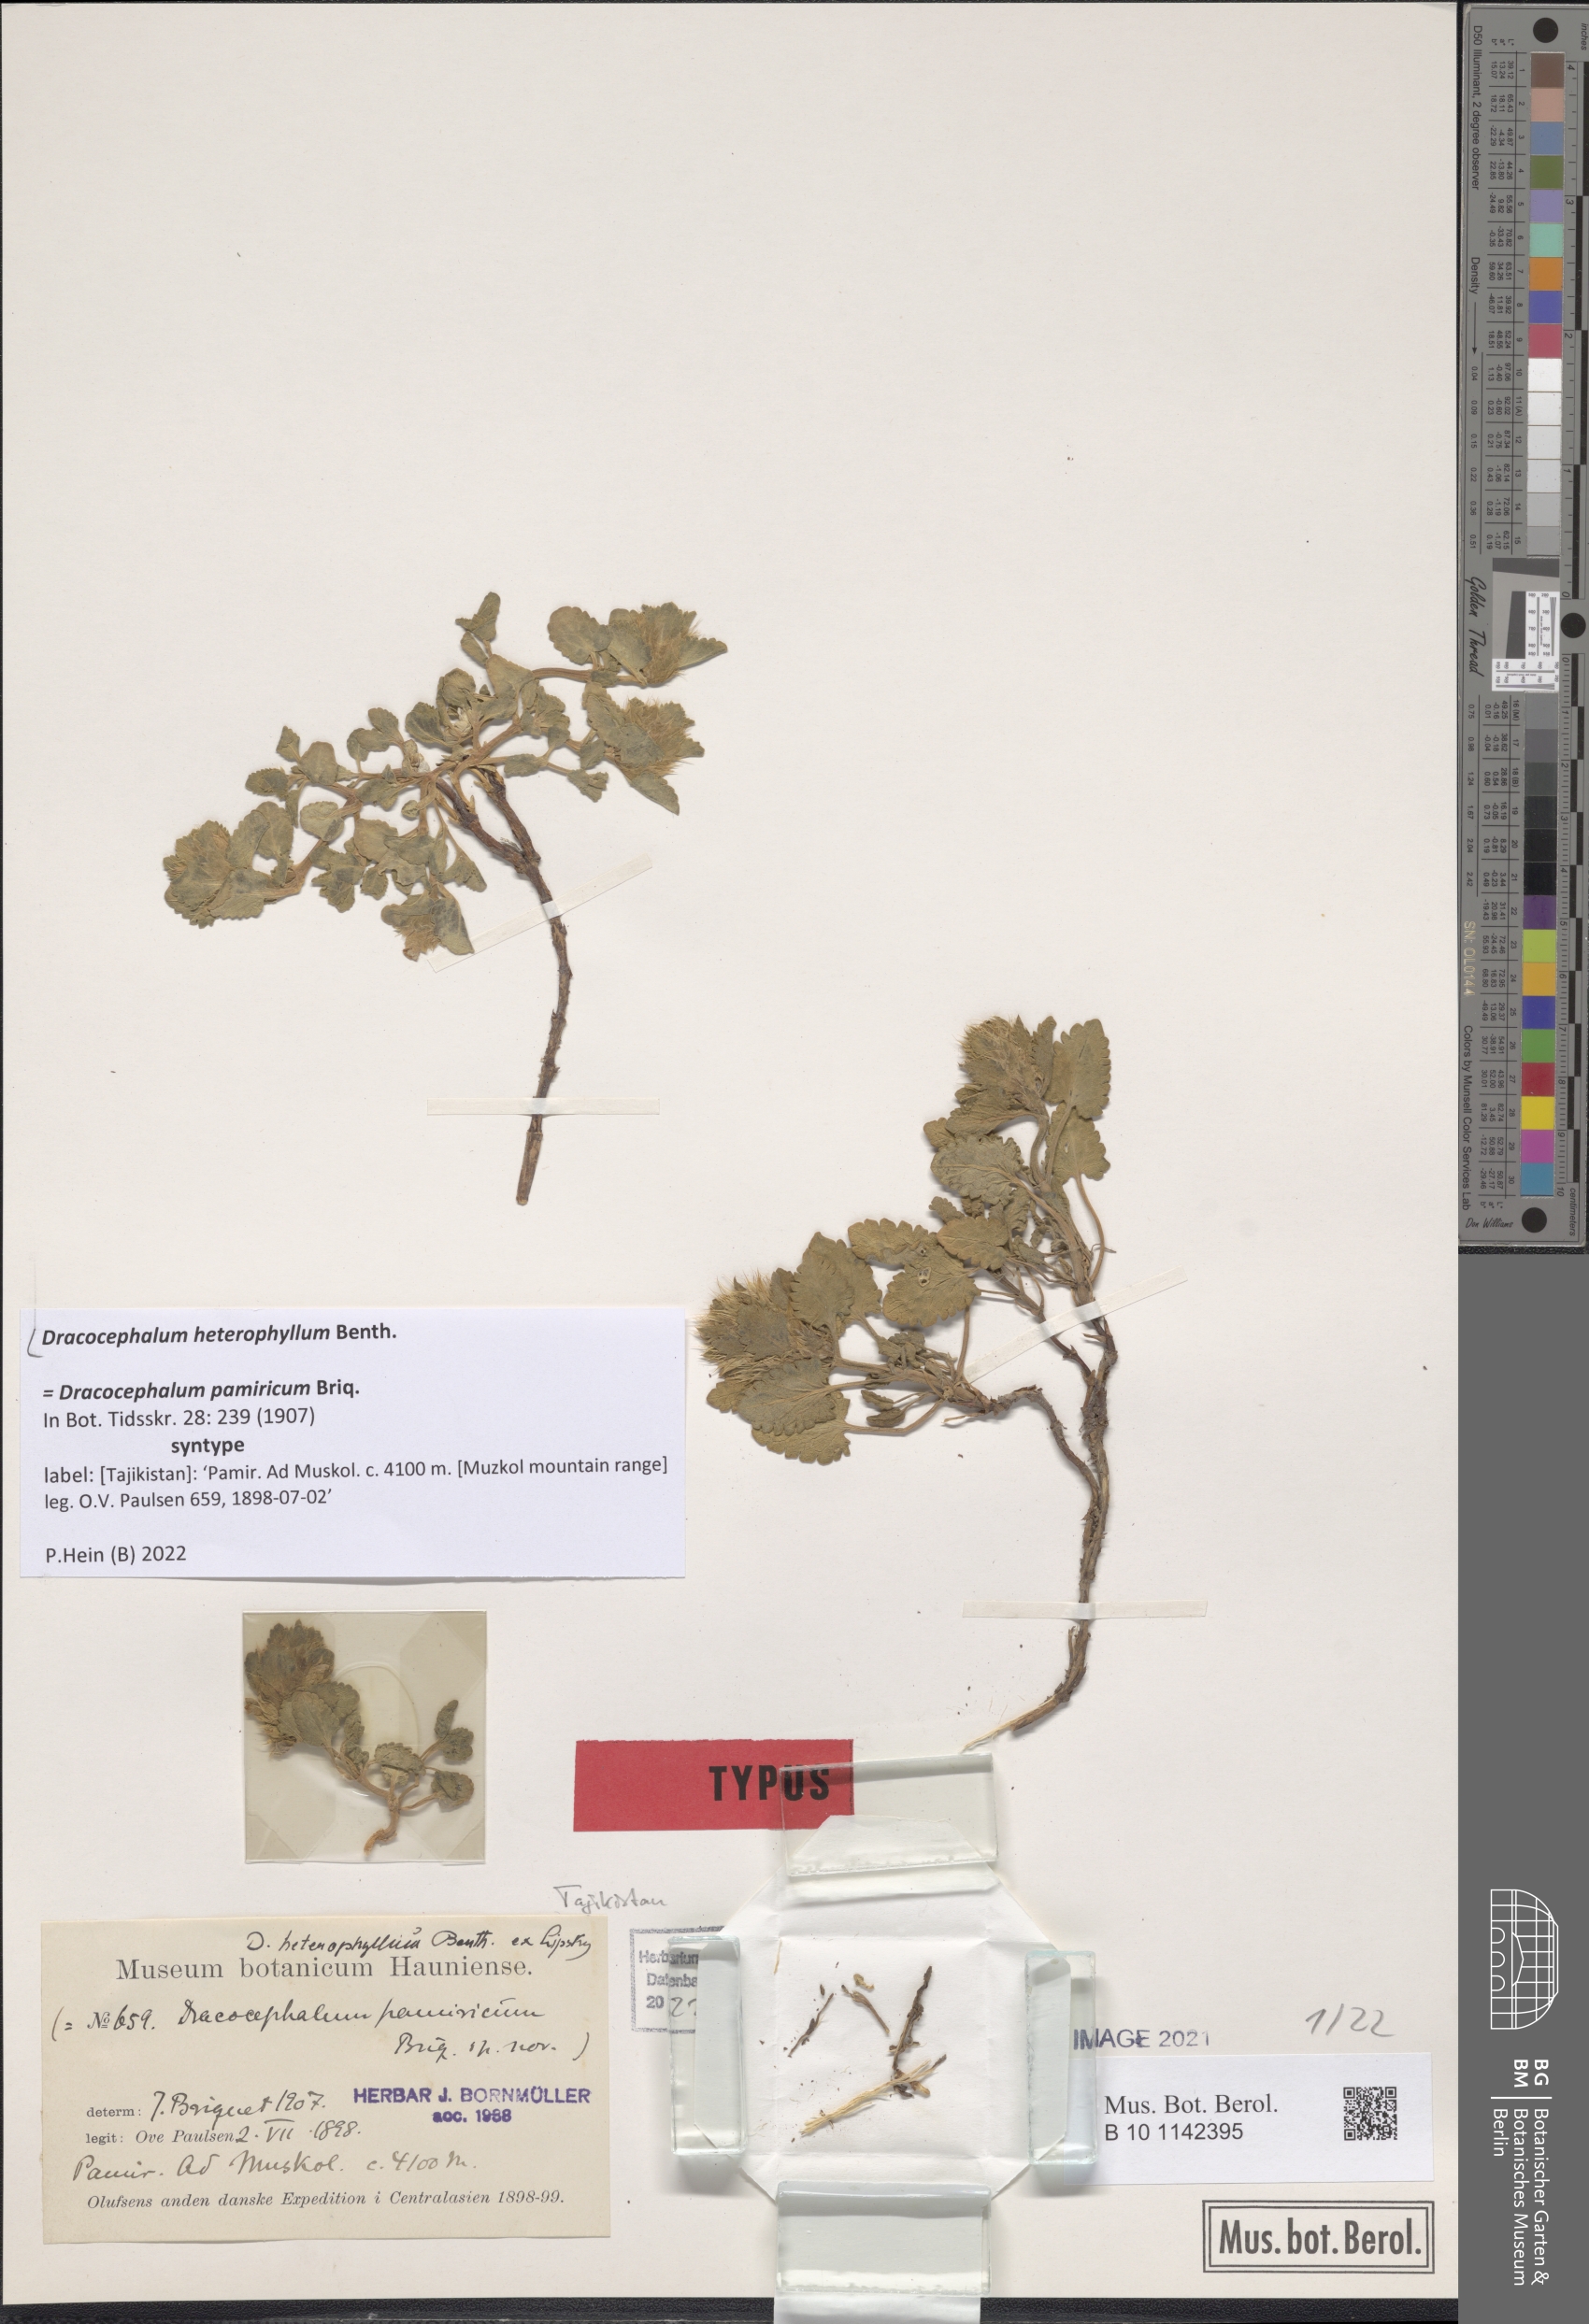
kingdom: Plantae
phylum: Tracheophyta
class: Magnoliopsida
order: Lamiales
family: Lamiaceae
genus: Dracocephalum
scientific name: Dracocephalum heterophyllum
